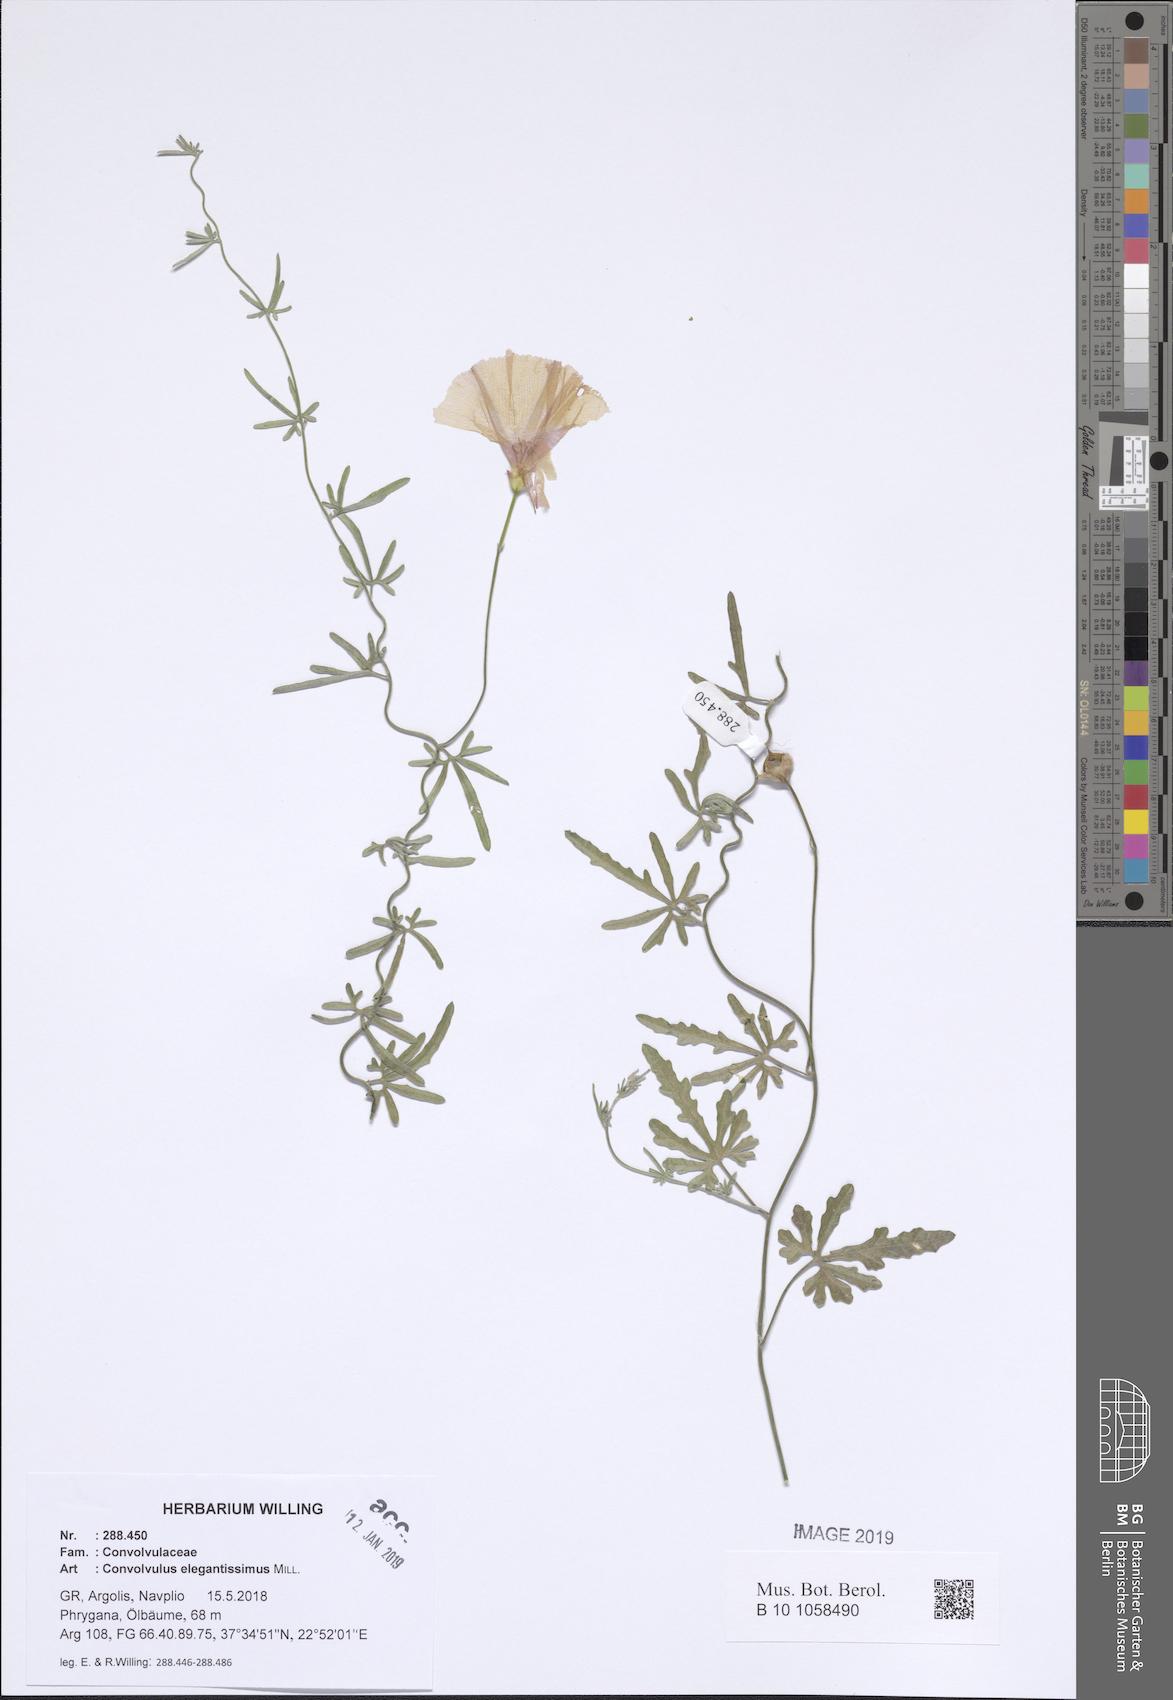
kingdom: Plantae
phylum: Tracheophyta
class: Magnoliopsida
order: Solanales
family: Convolvulaceae
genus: Convolvulus
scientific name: Convolvulus elegantissimus
